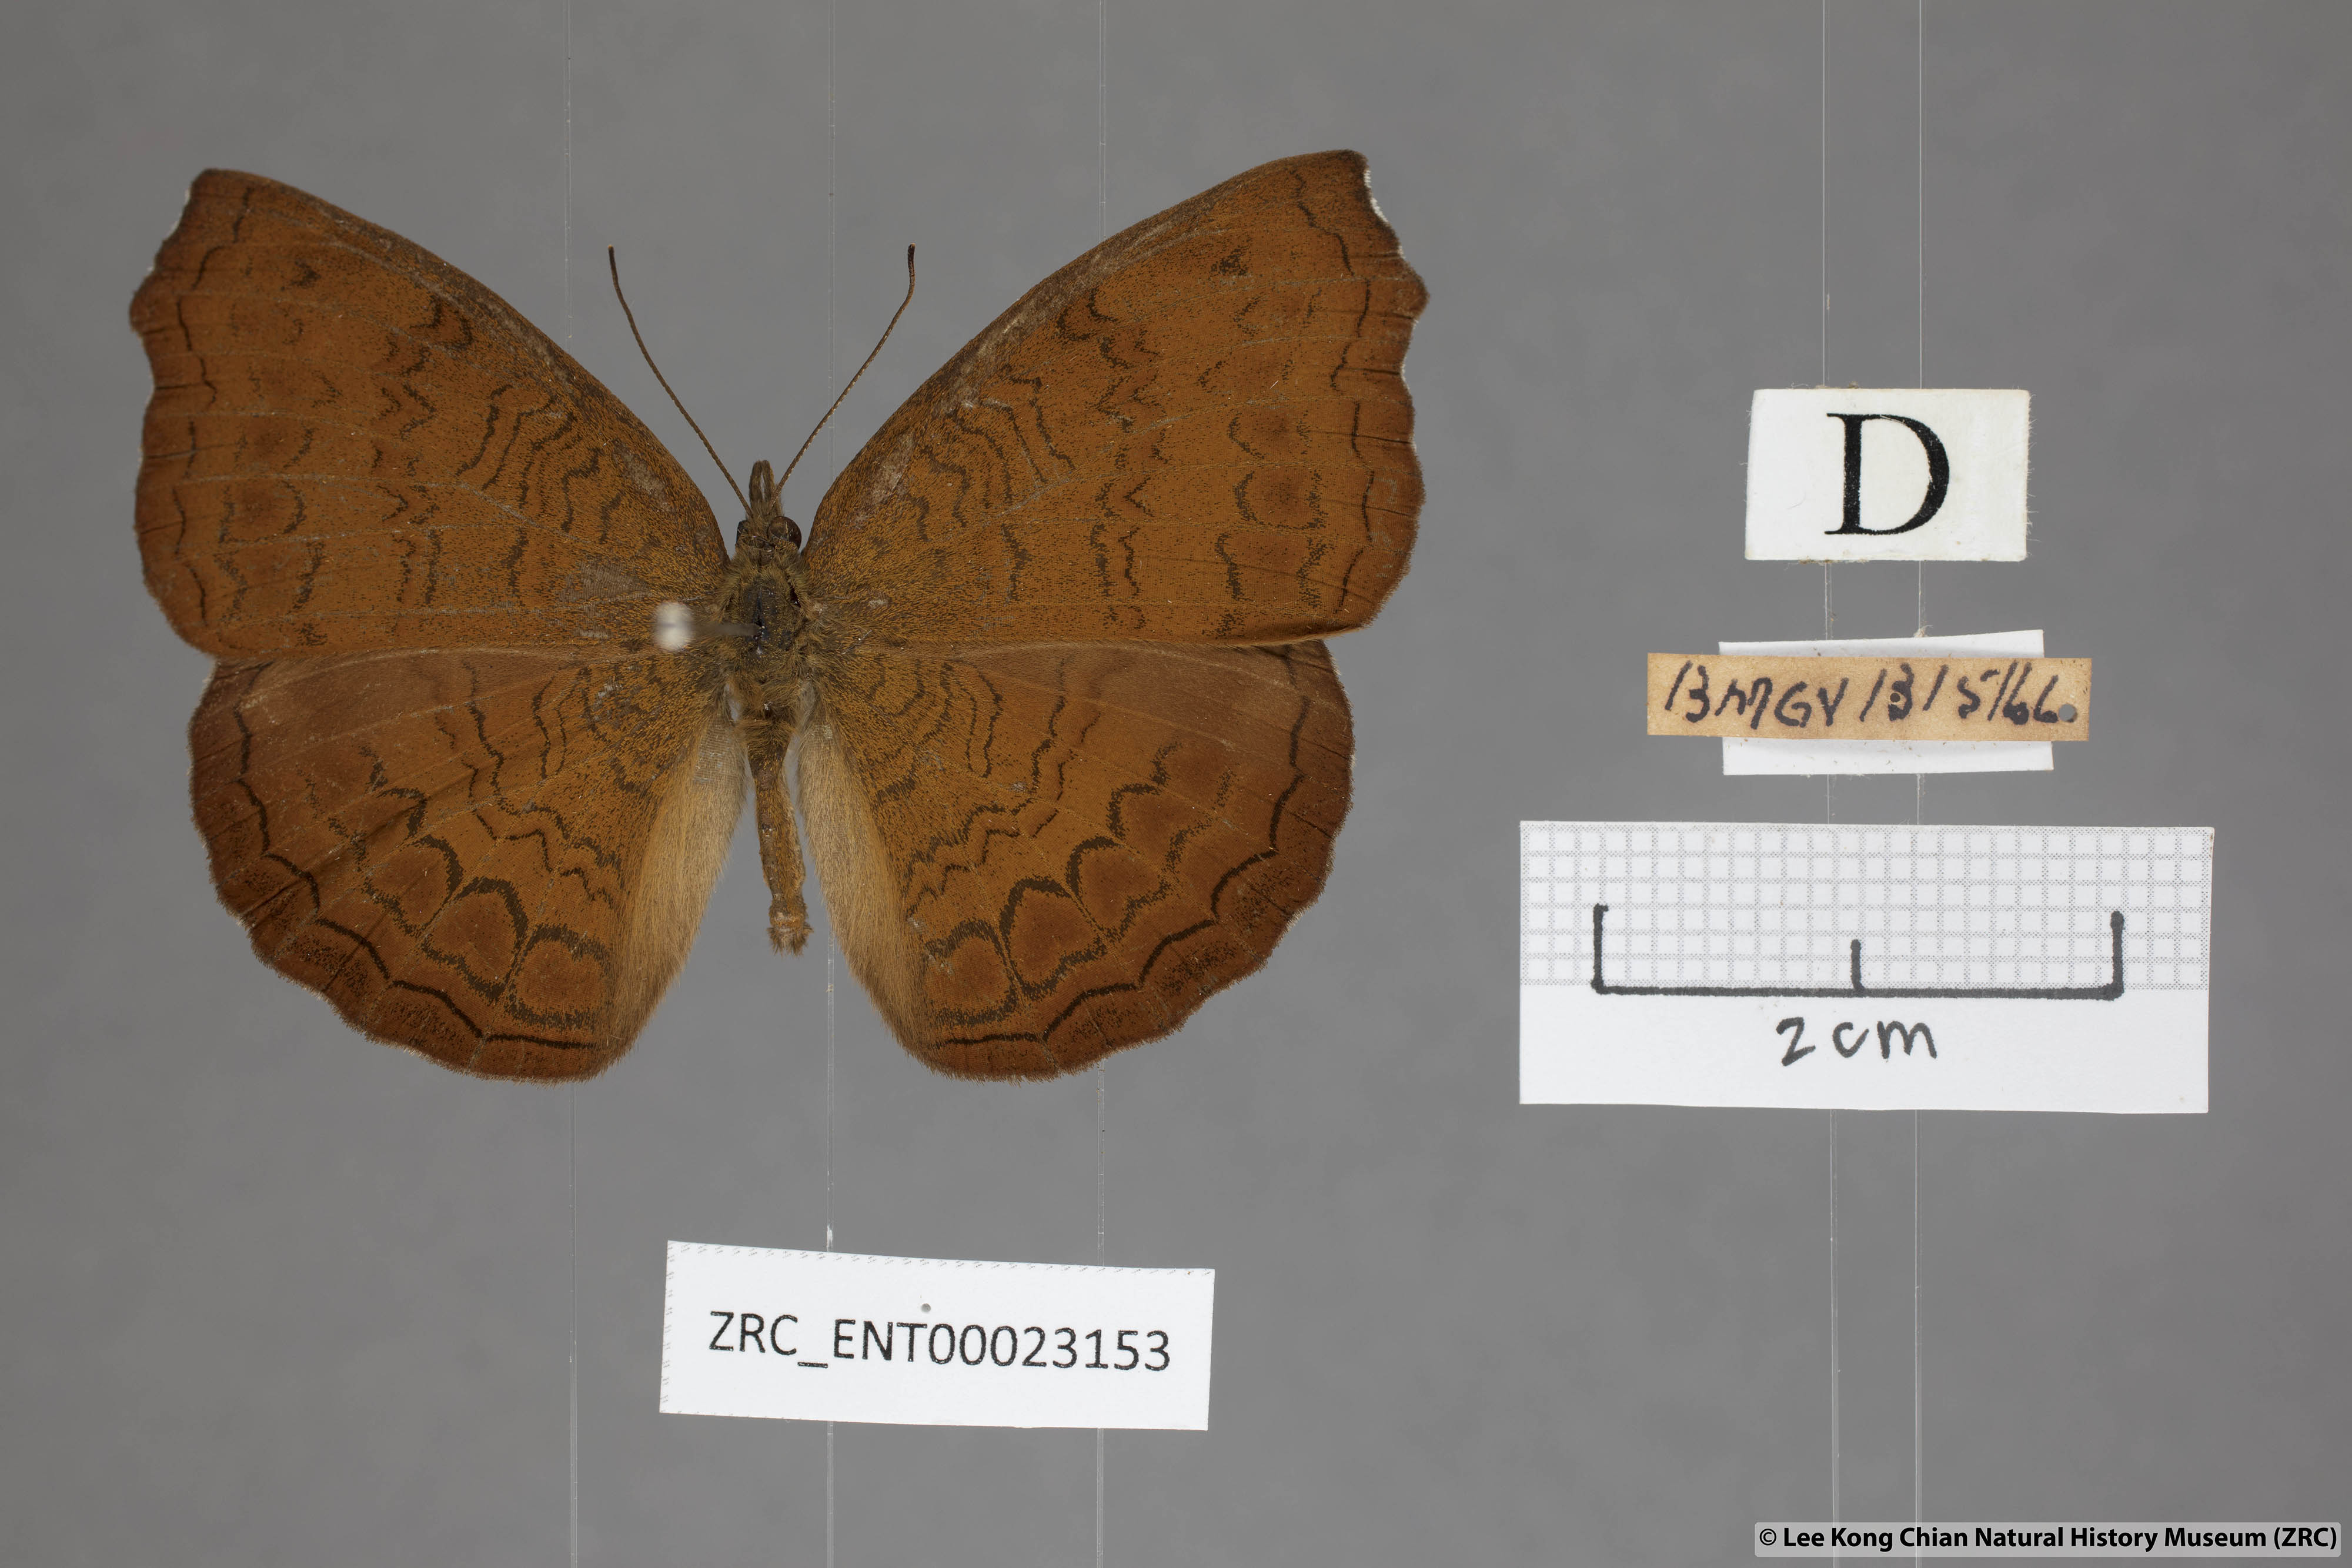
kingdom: Animalia
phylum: Arthropoda
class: Insecta
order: Lepidoptera
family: Nymphalidae
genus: Ariadne
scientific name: Ariadne isaeus
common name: Malayan castor
